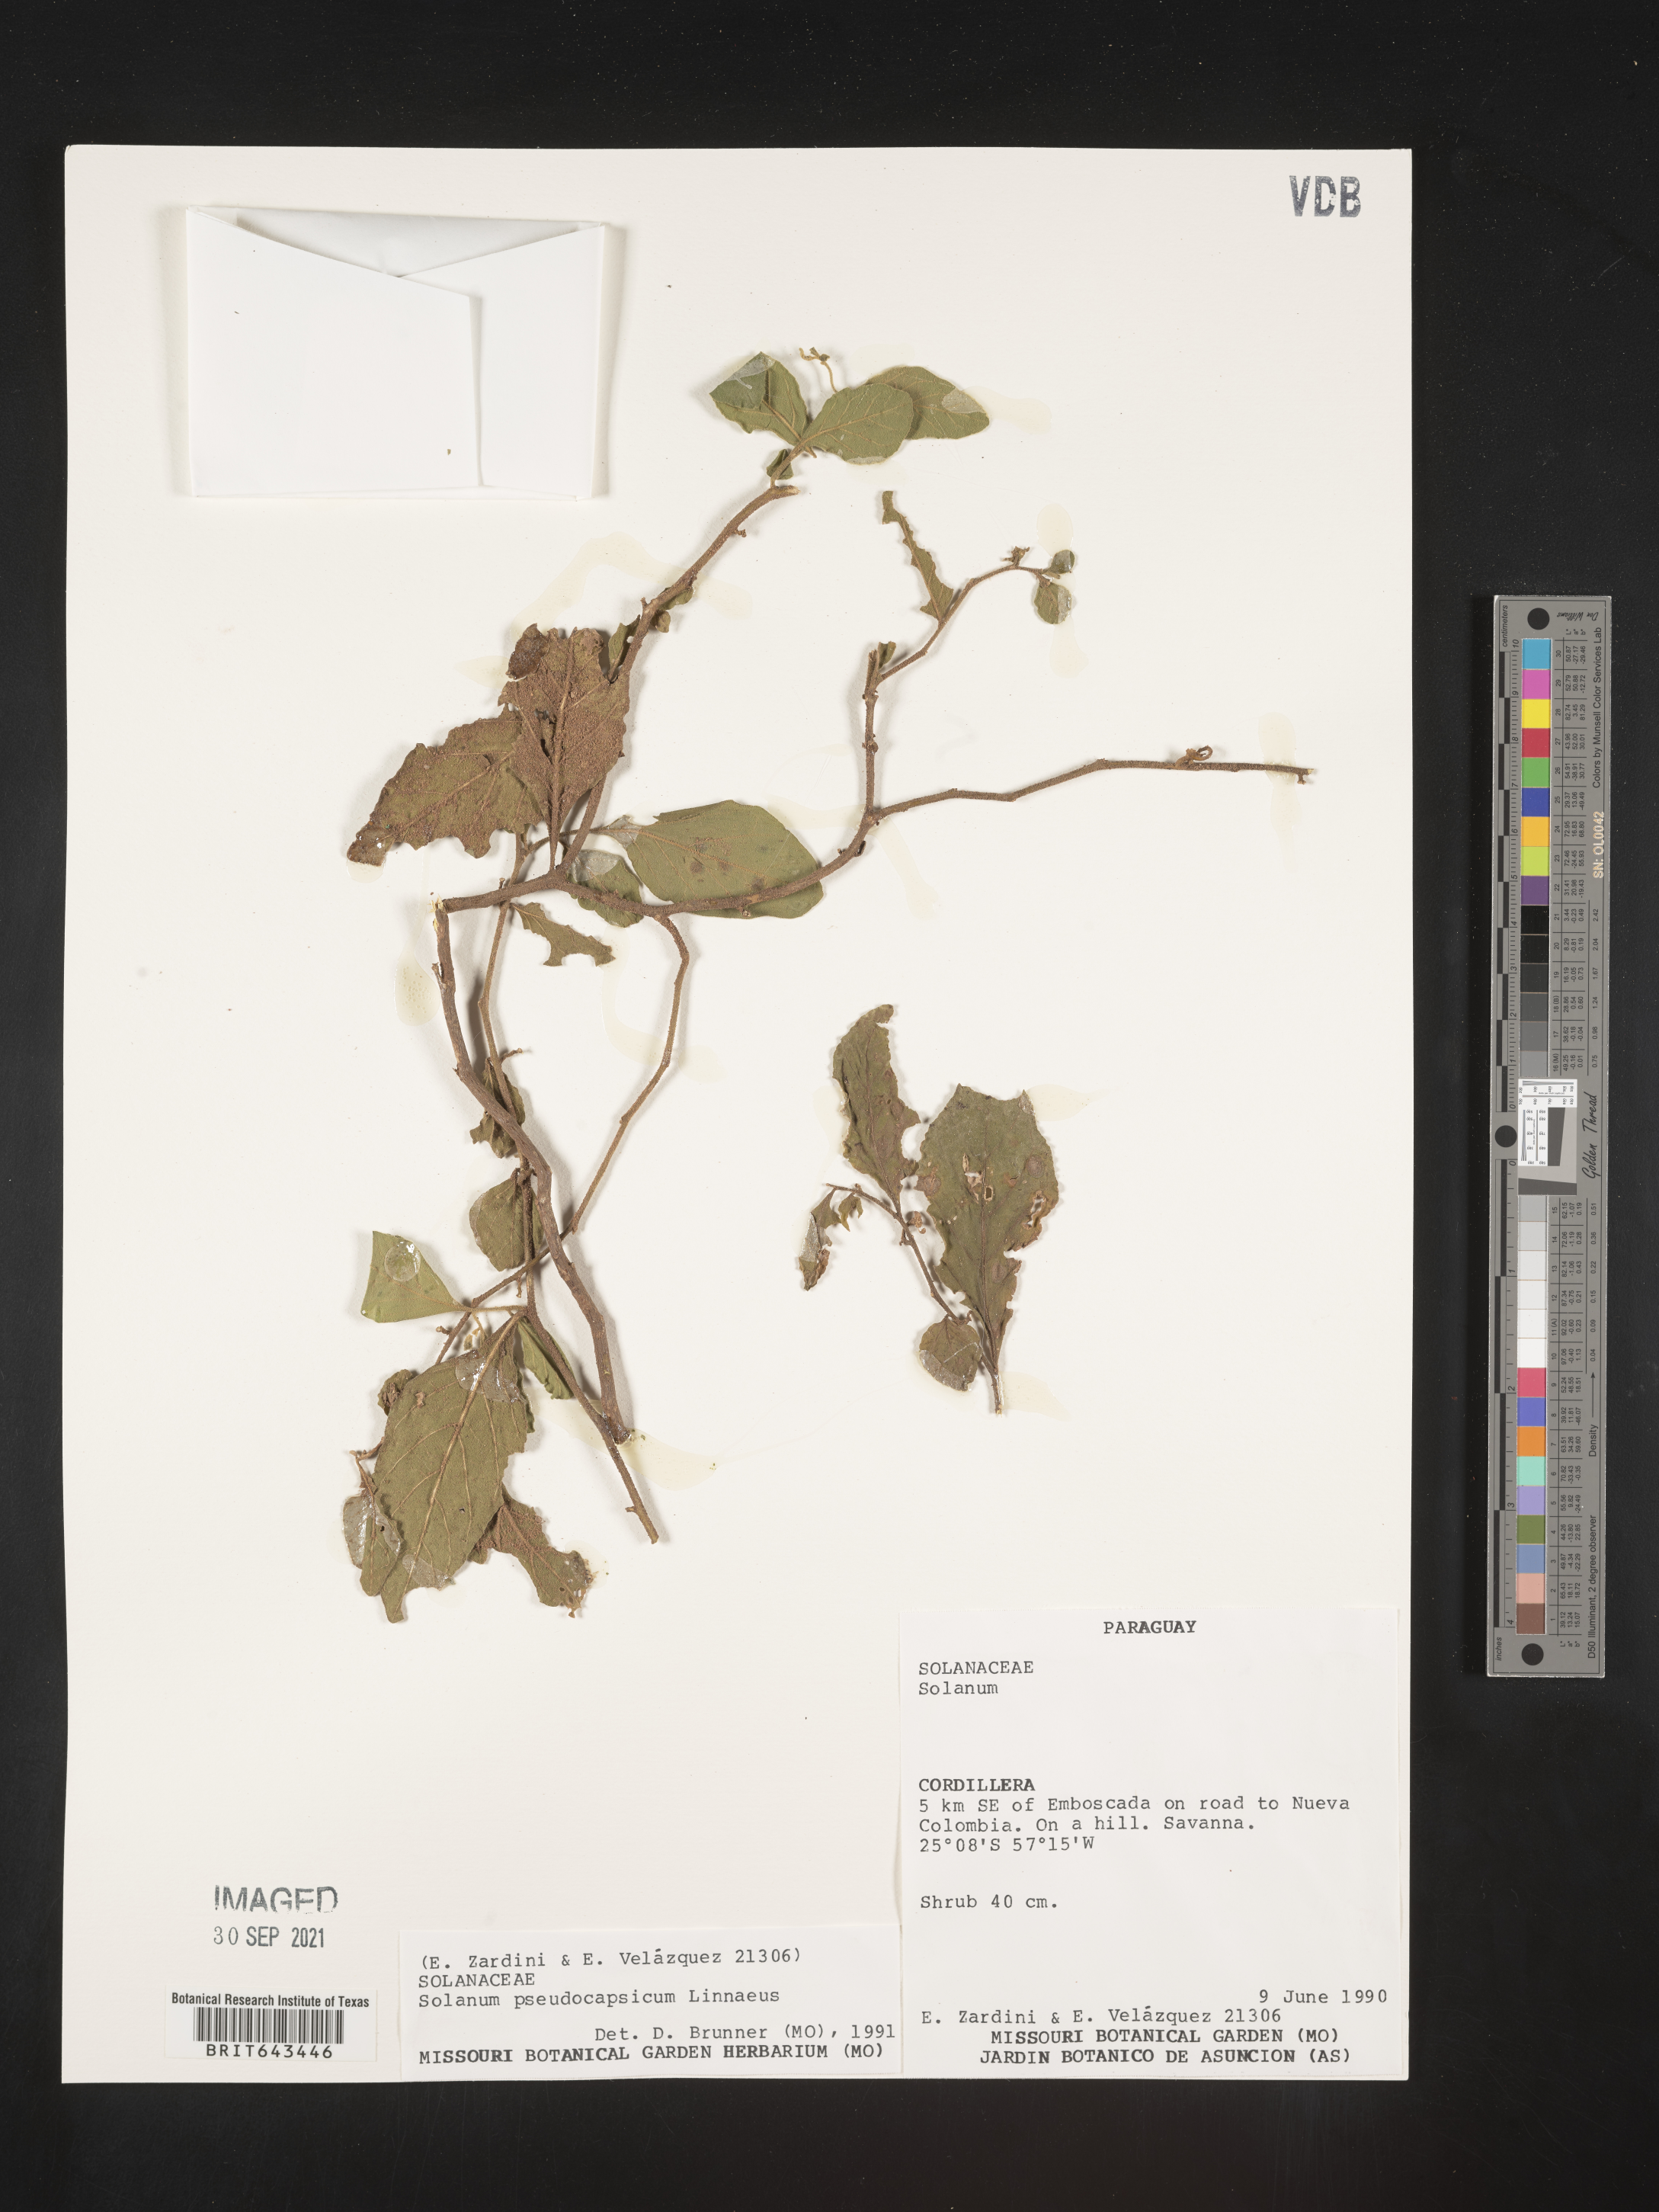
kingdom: Plantae
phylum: Tracheophyta
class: Magnoliopsida
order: Solanales
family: Solanaceae
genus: Solanum
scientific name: Solanum
